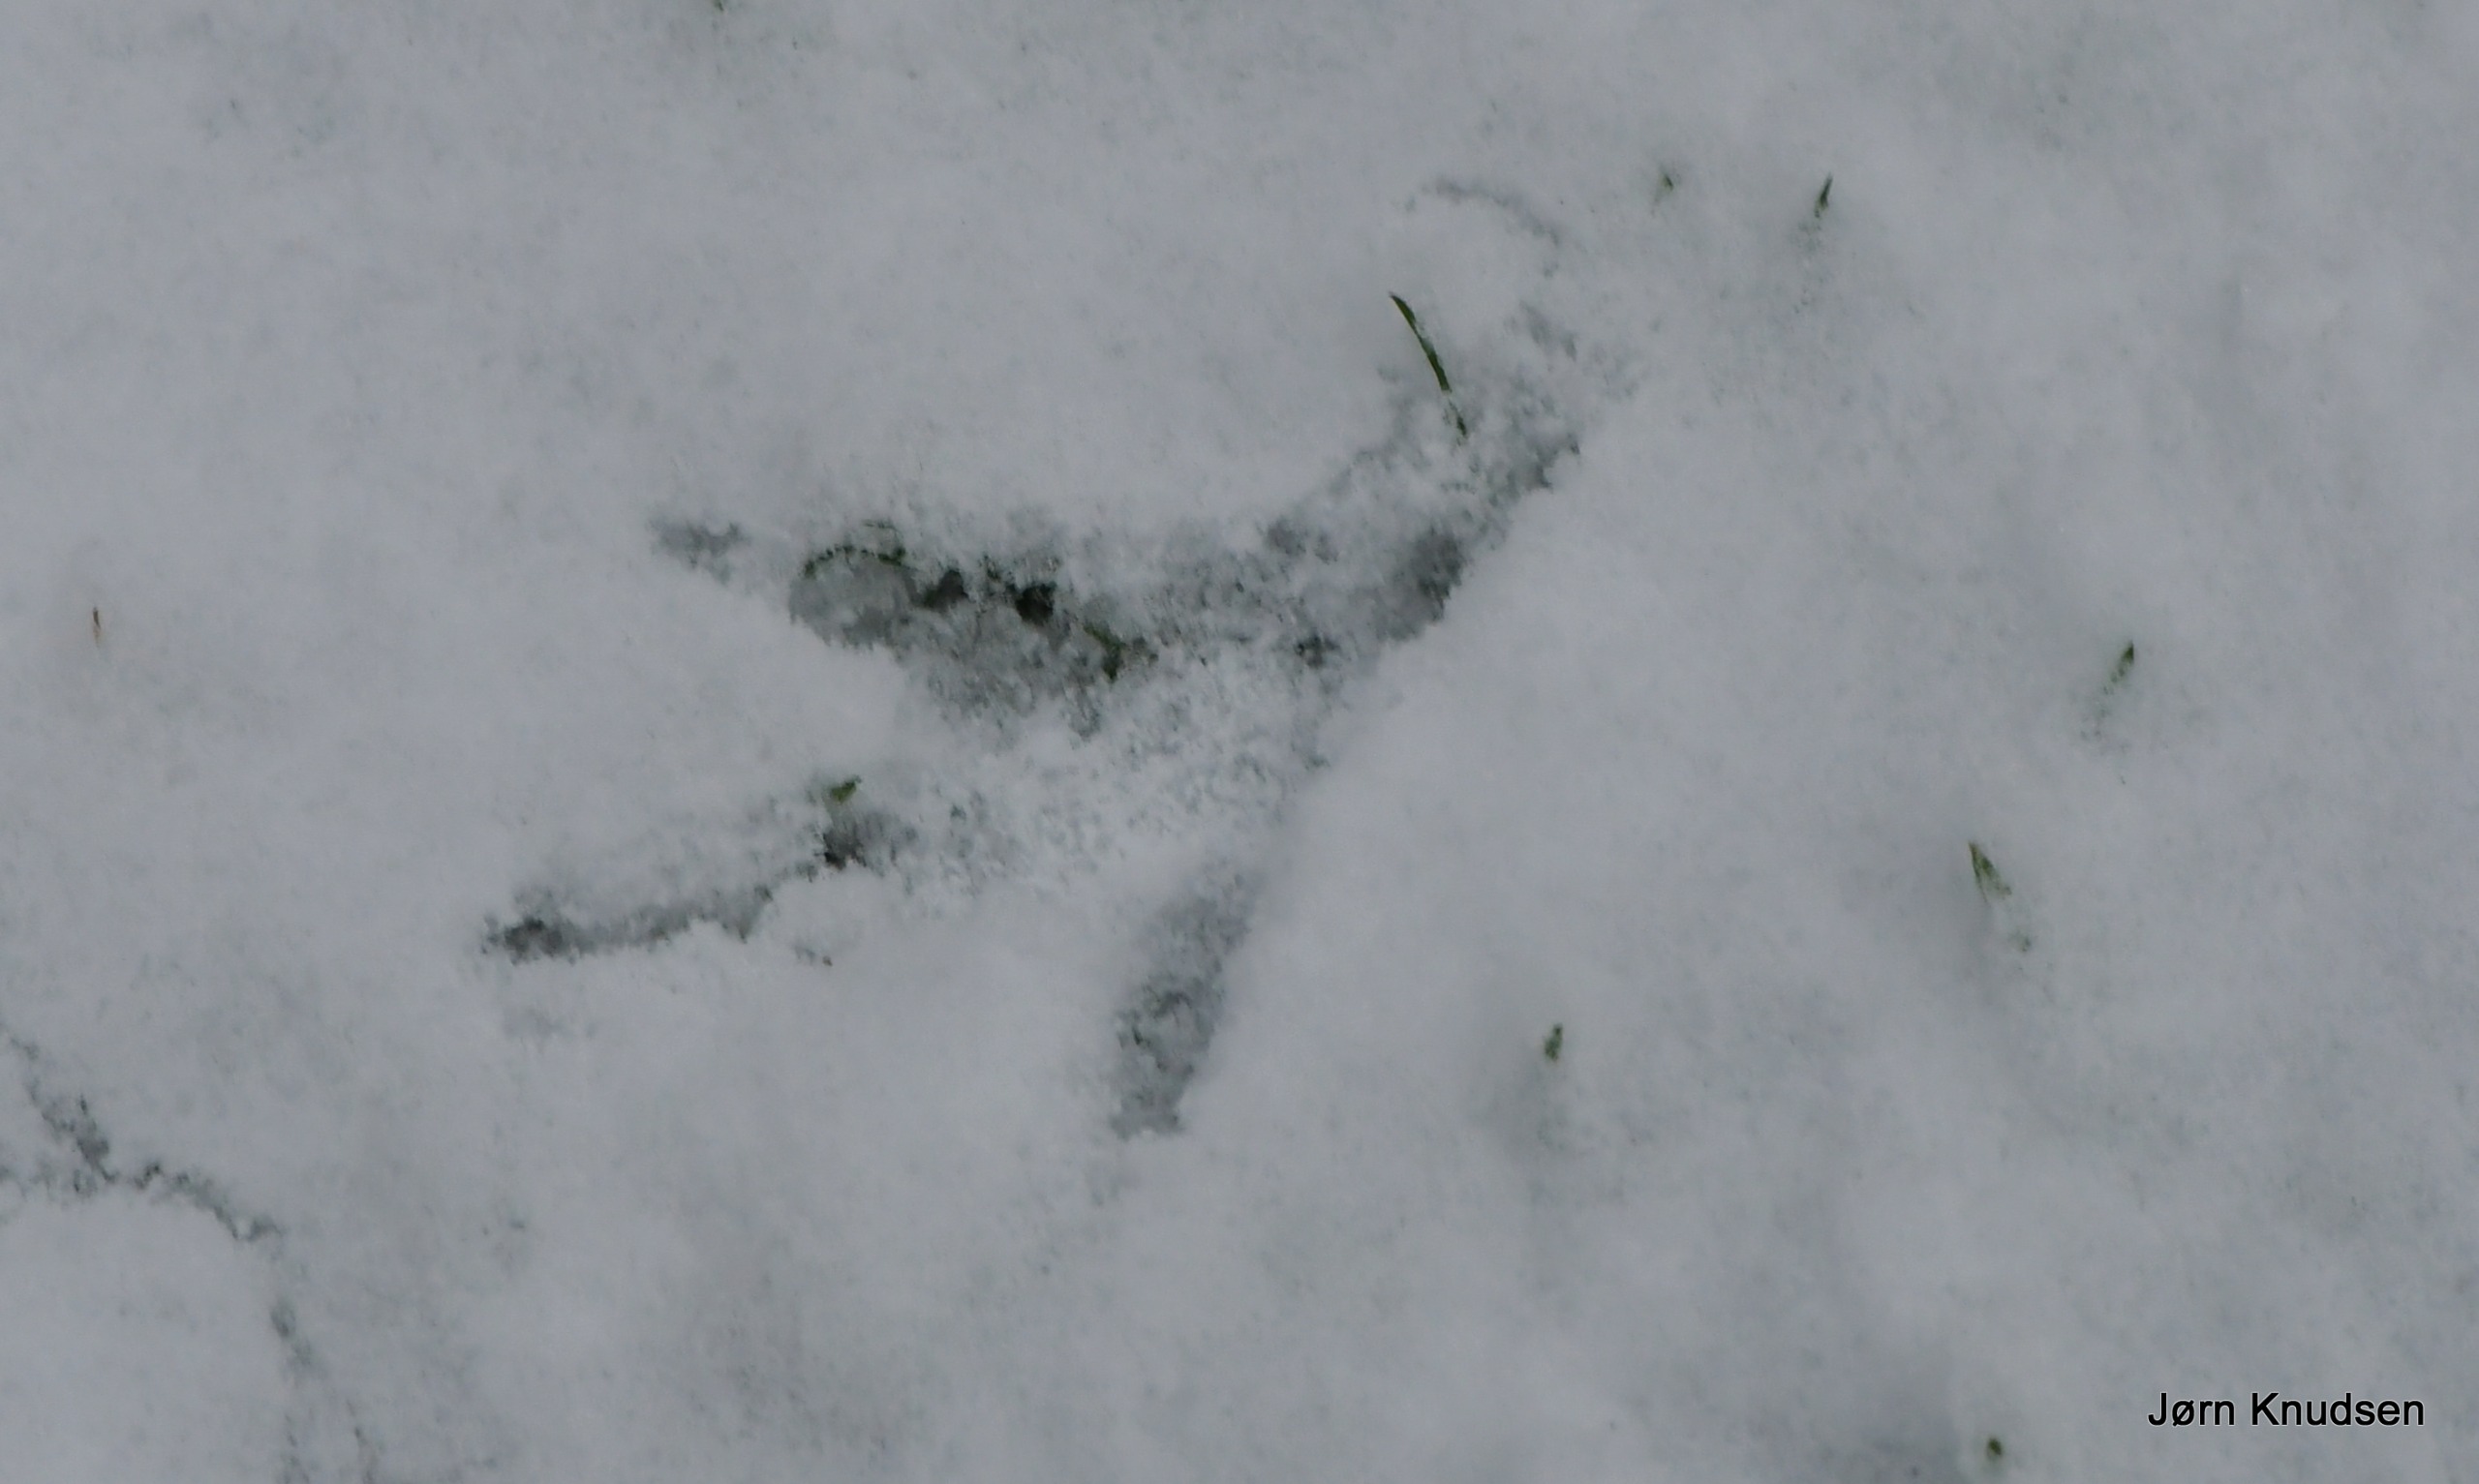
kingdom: Animalia
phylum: Chordata
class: Aves
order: Columbiformes
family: Columbidae
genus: Columba
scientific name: Columba palumbus
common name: Ringdue
